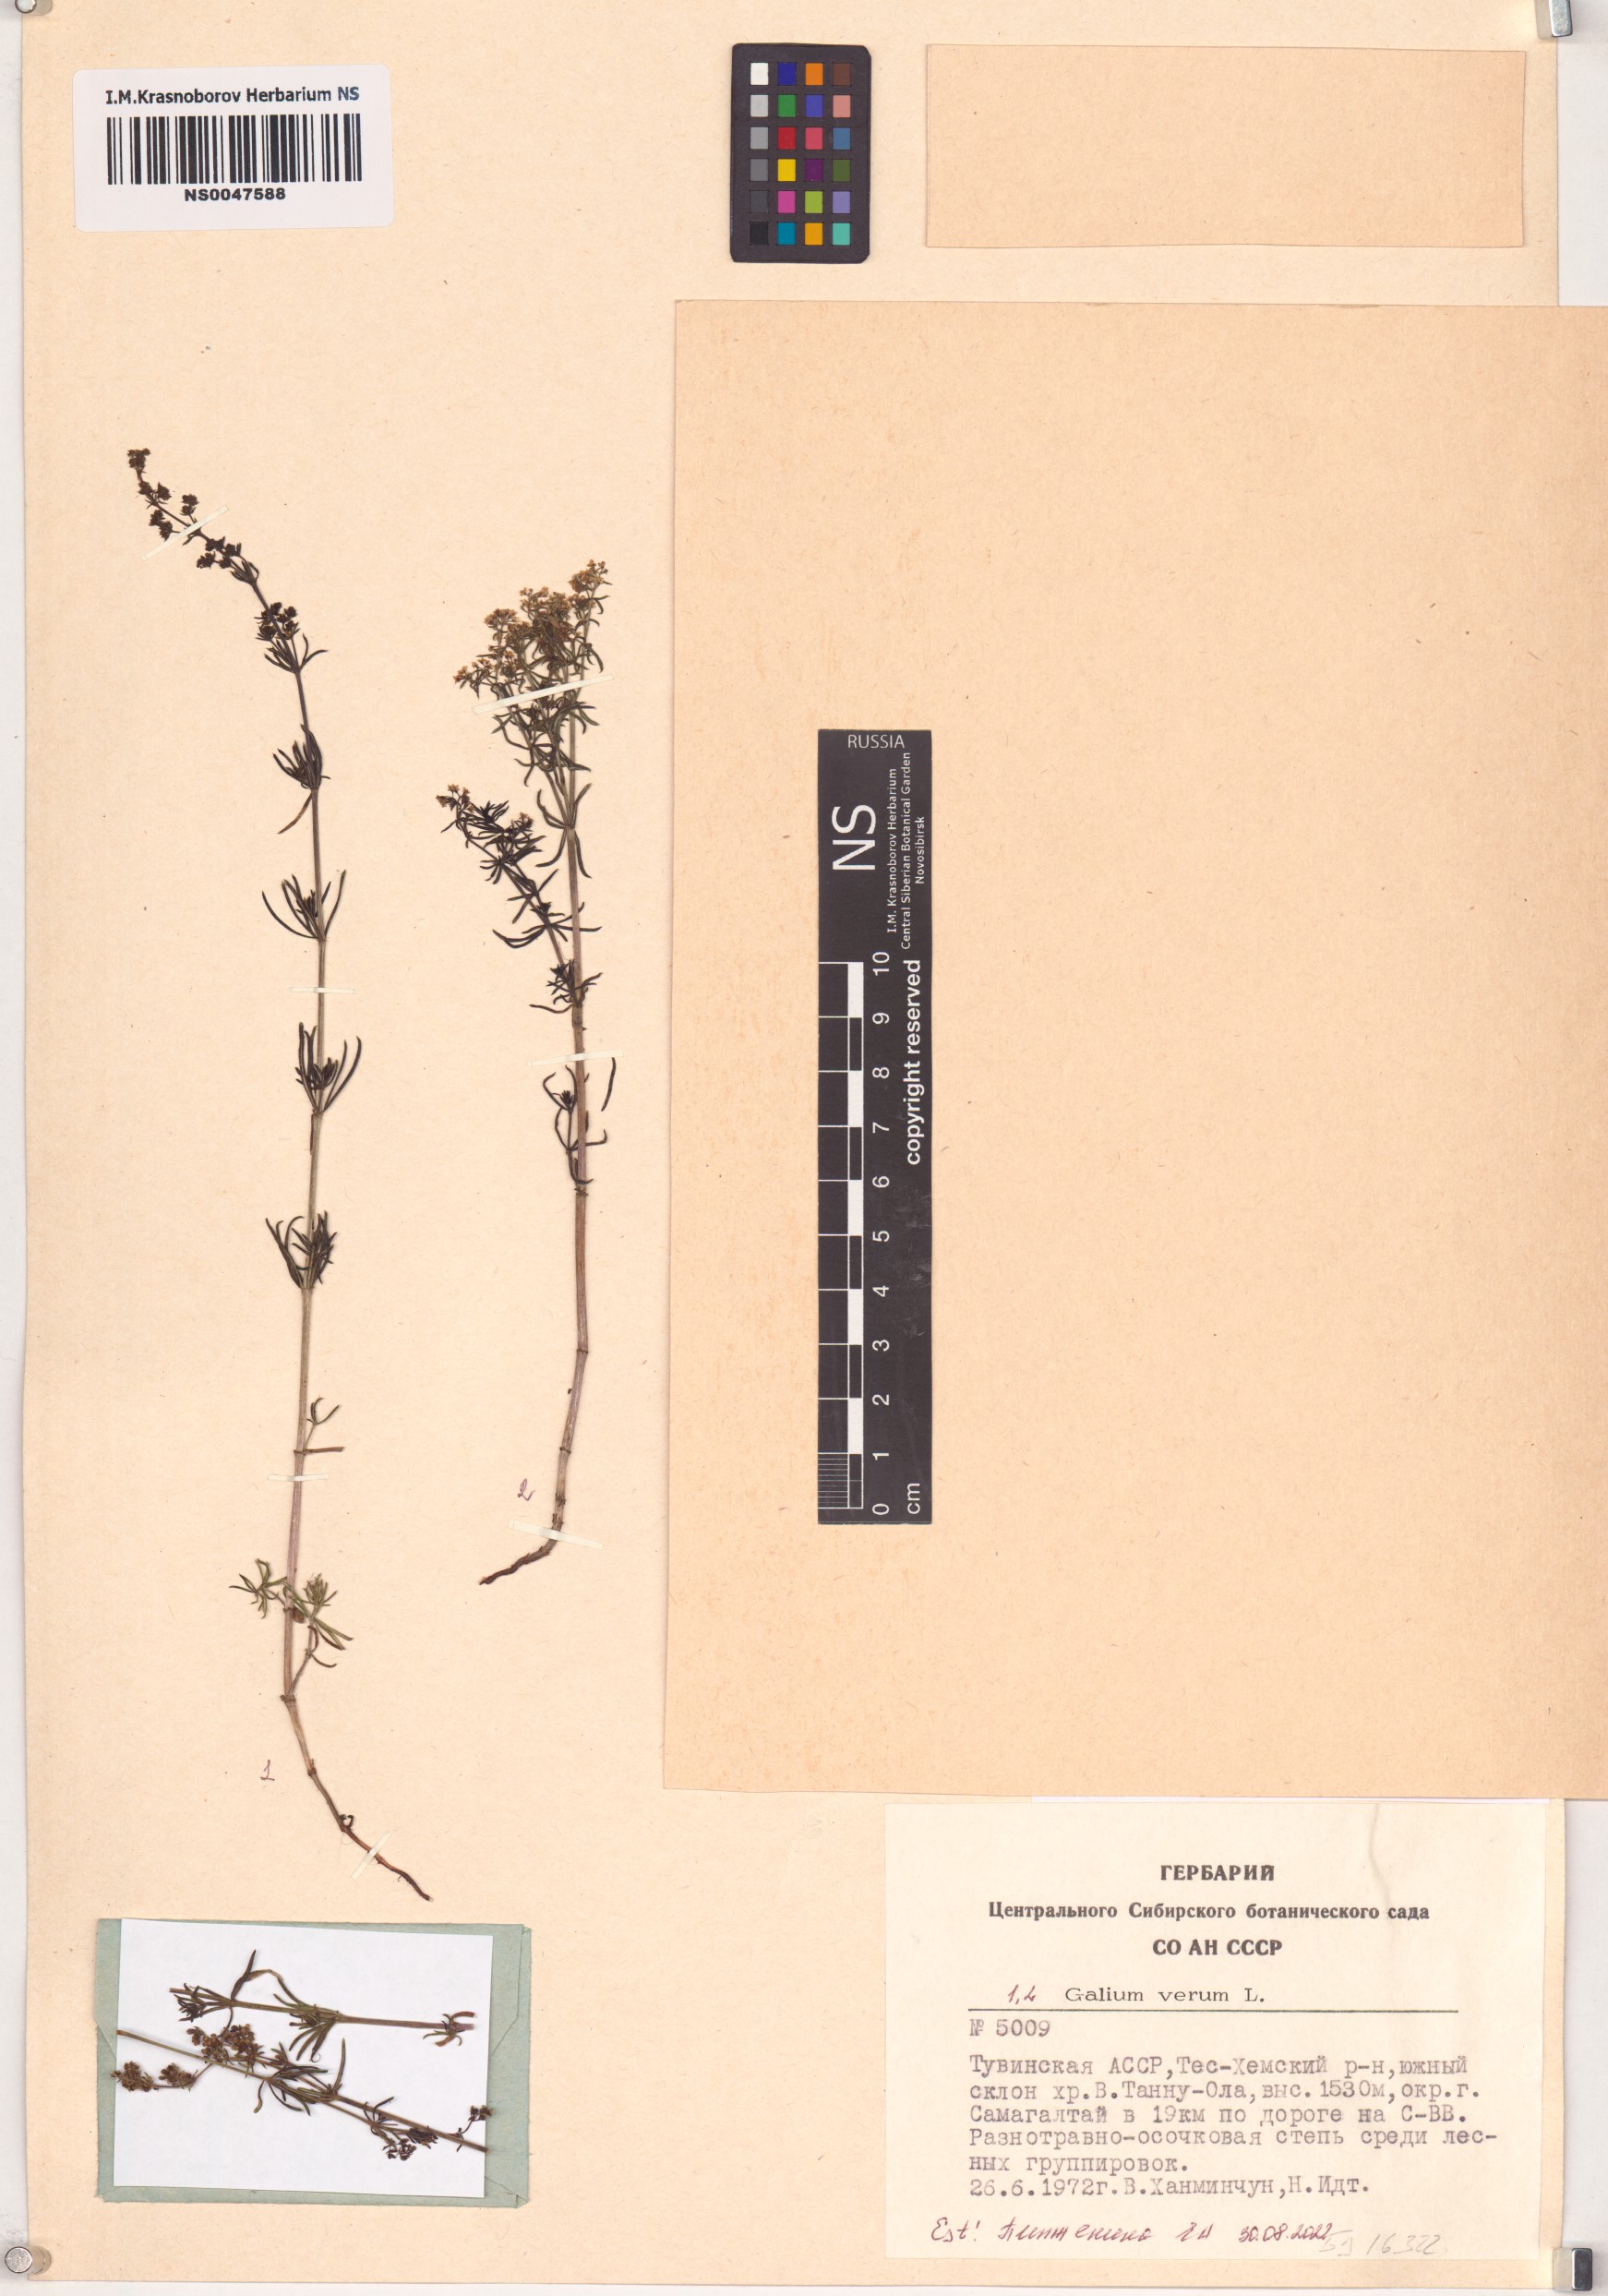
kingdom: Plantae
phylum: Tracheophyta
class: Magnoliopsida
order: Gentianales
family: Rubiaceae
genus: Galium
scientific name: Galium verum
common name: Lady's bedstraw
